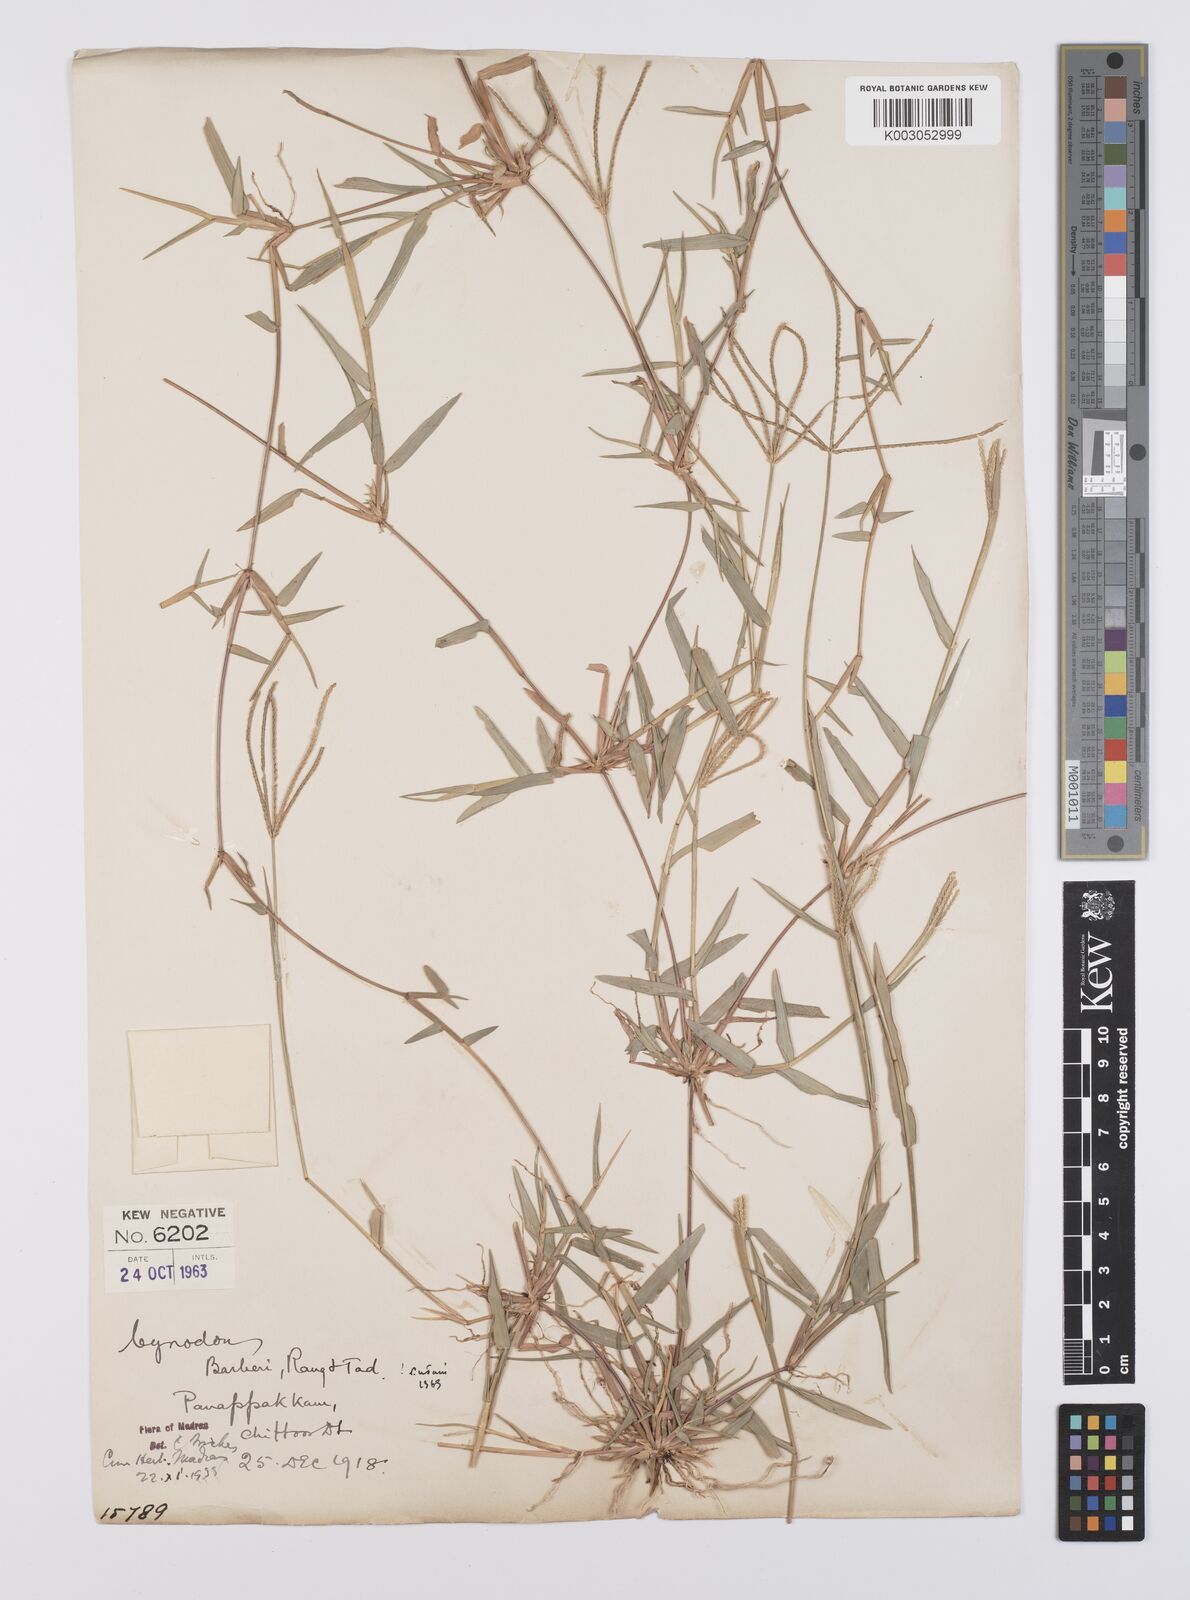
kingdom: Plantae
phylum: Tracheophyta
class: Liliopsida
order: Poales
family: Poaceae
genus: Cynodon
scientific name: Cynodon barberi
